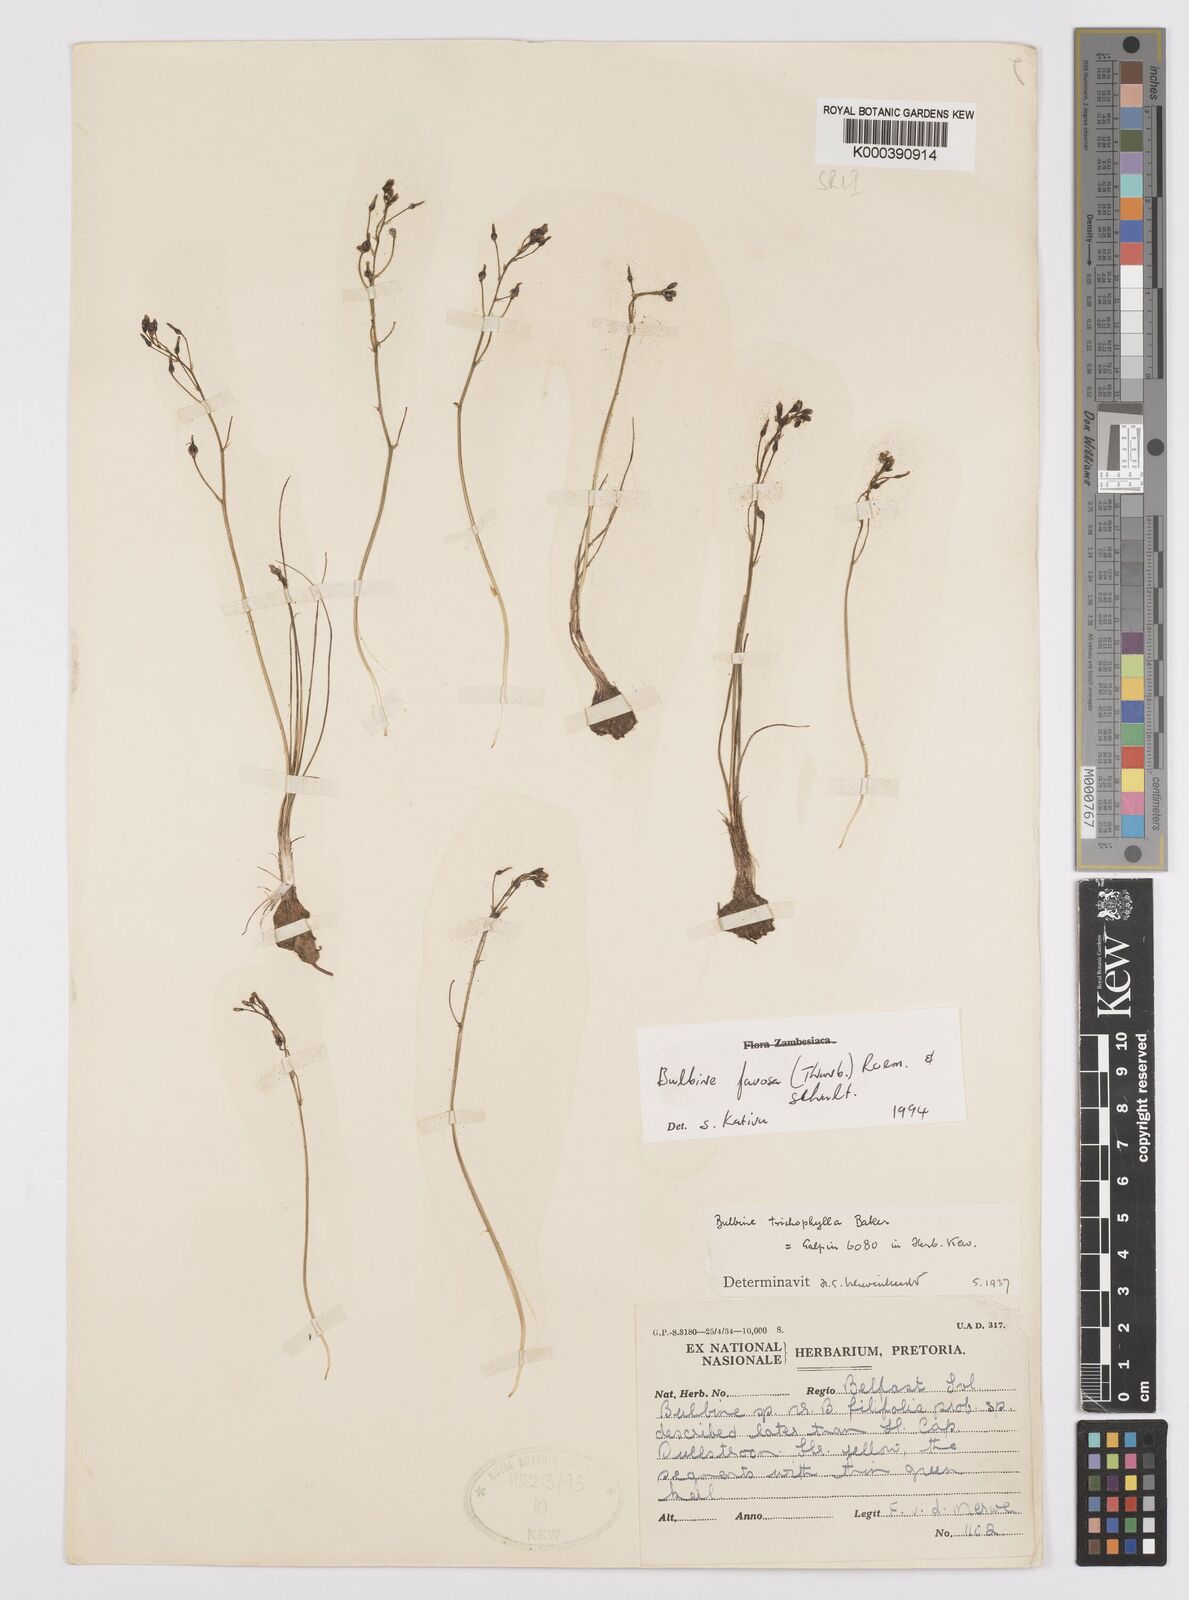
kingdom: Plantae
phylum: Tracheophyta
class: Liliopsida
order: Asparagales
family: Asphodelaceae
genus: Bulbine
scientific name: Bulbine favosa
